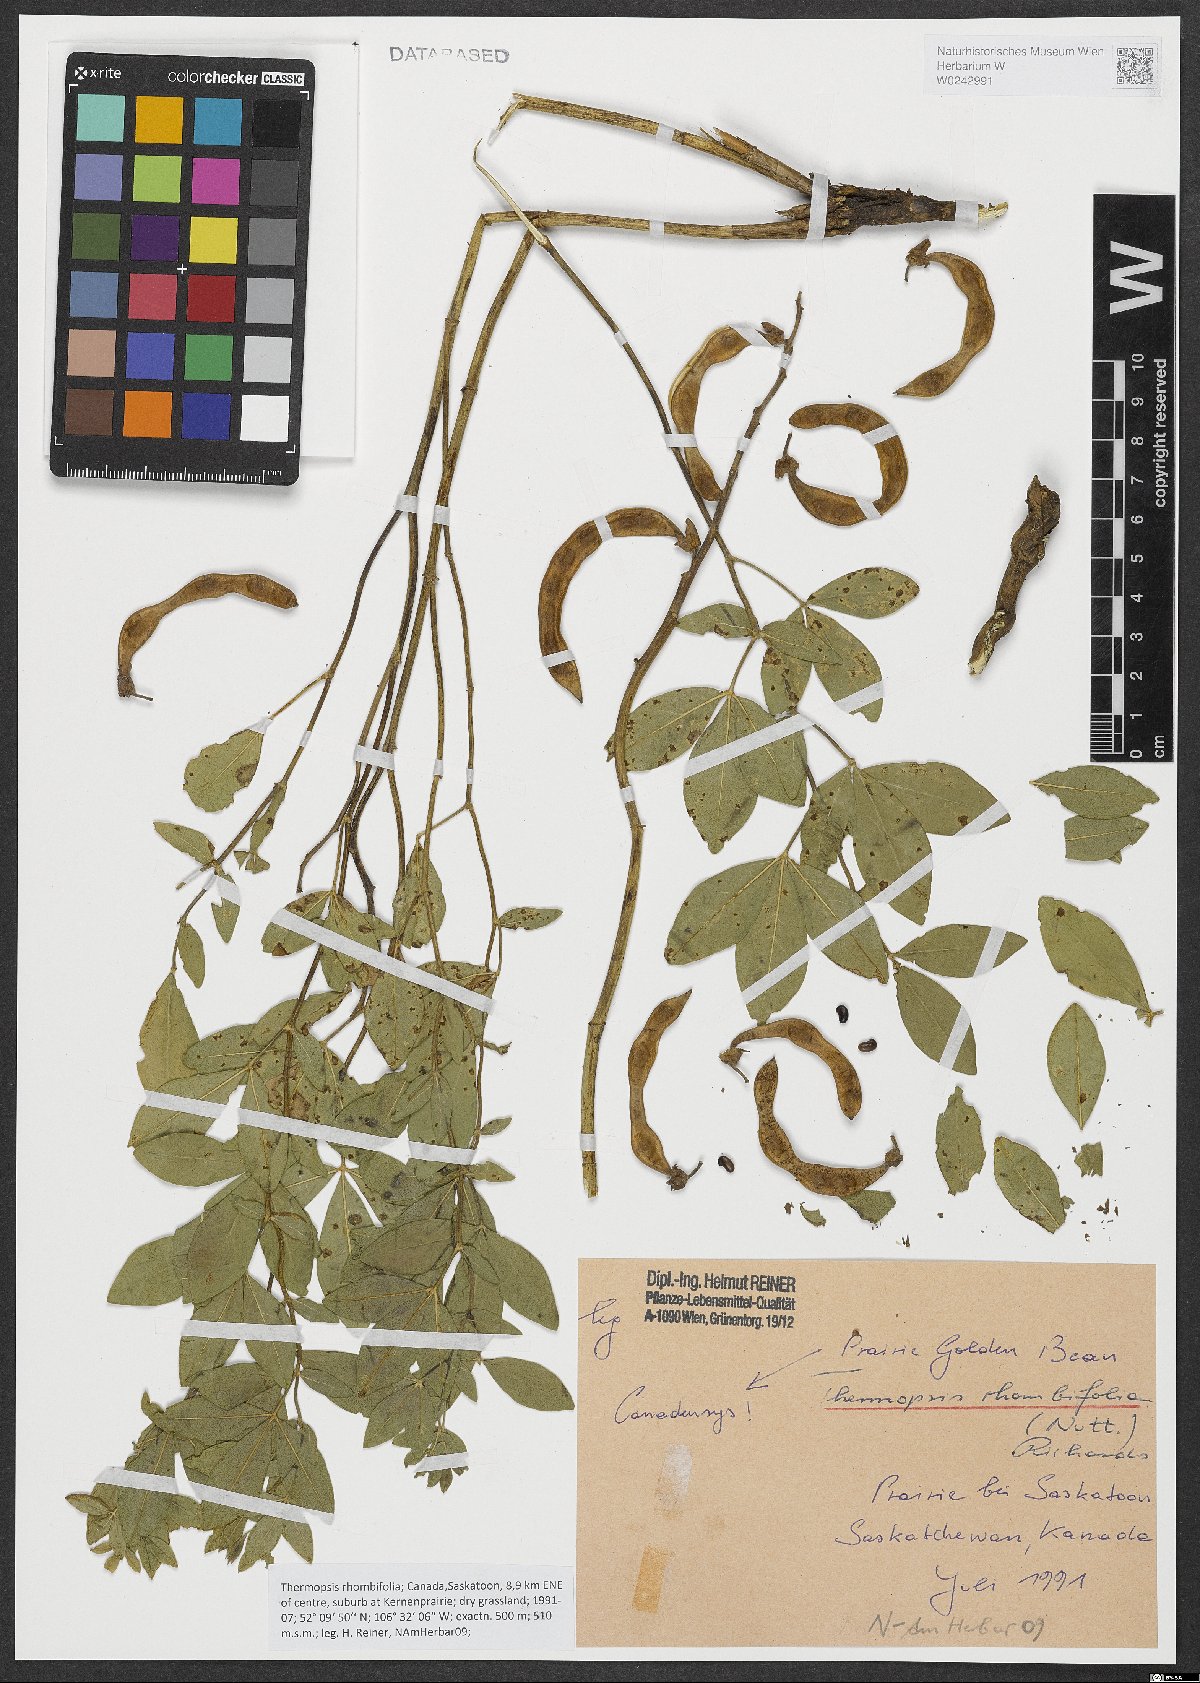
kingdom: Plantae
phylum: Tracheophyta
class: Magnoliopsida
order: Fabales
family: Fabaceae
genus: Thermopsis
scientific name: Thermopsis rhombifolia
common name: Circle-pod-pea
